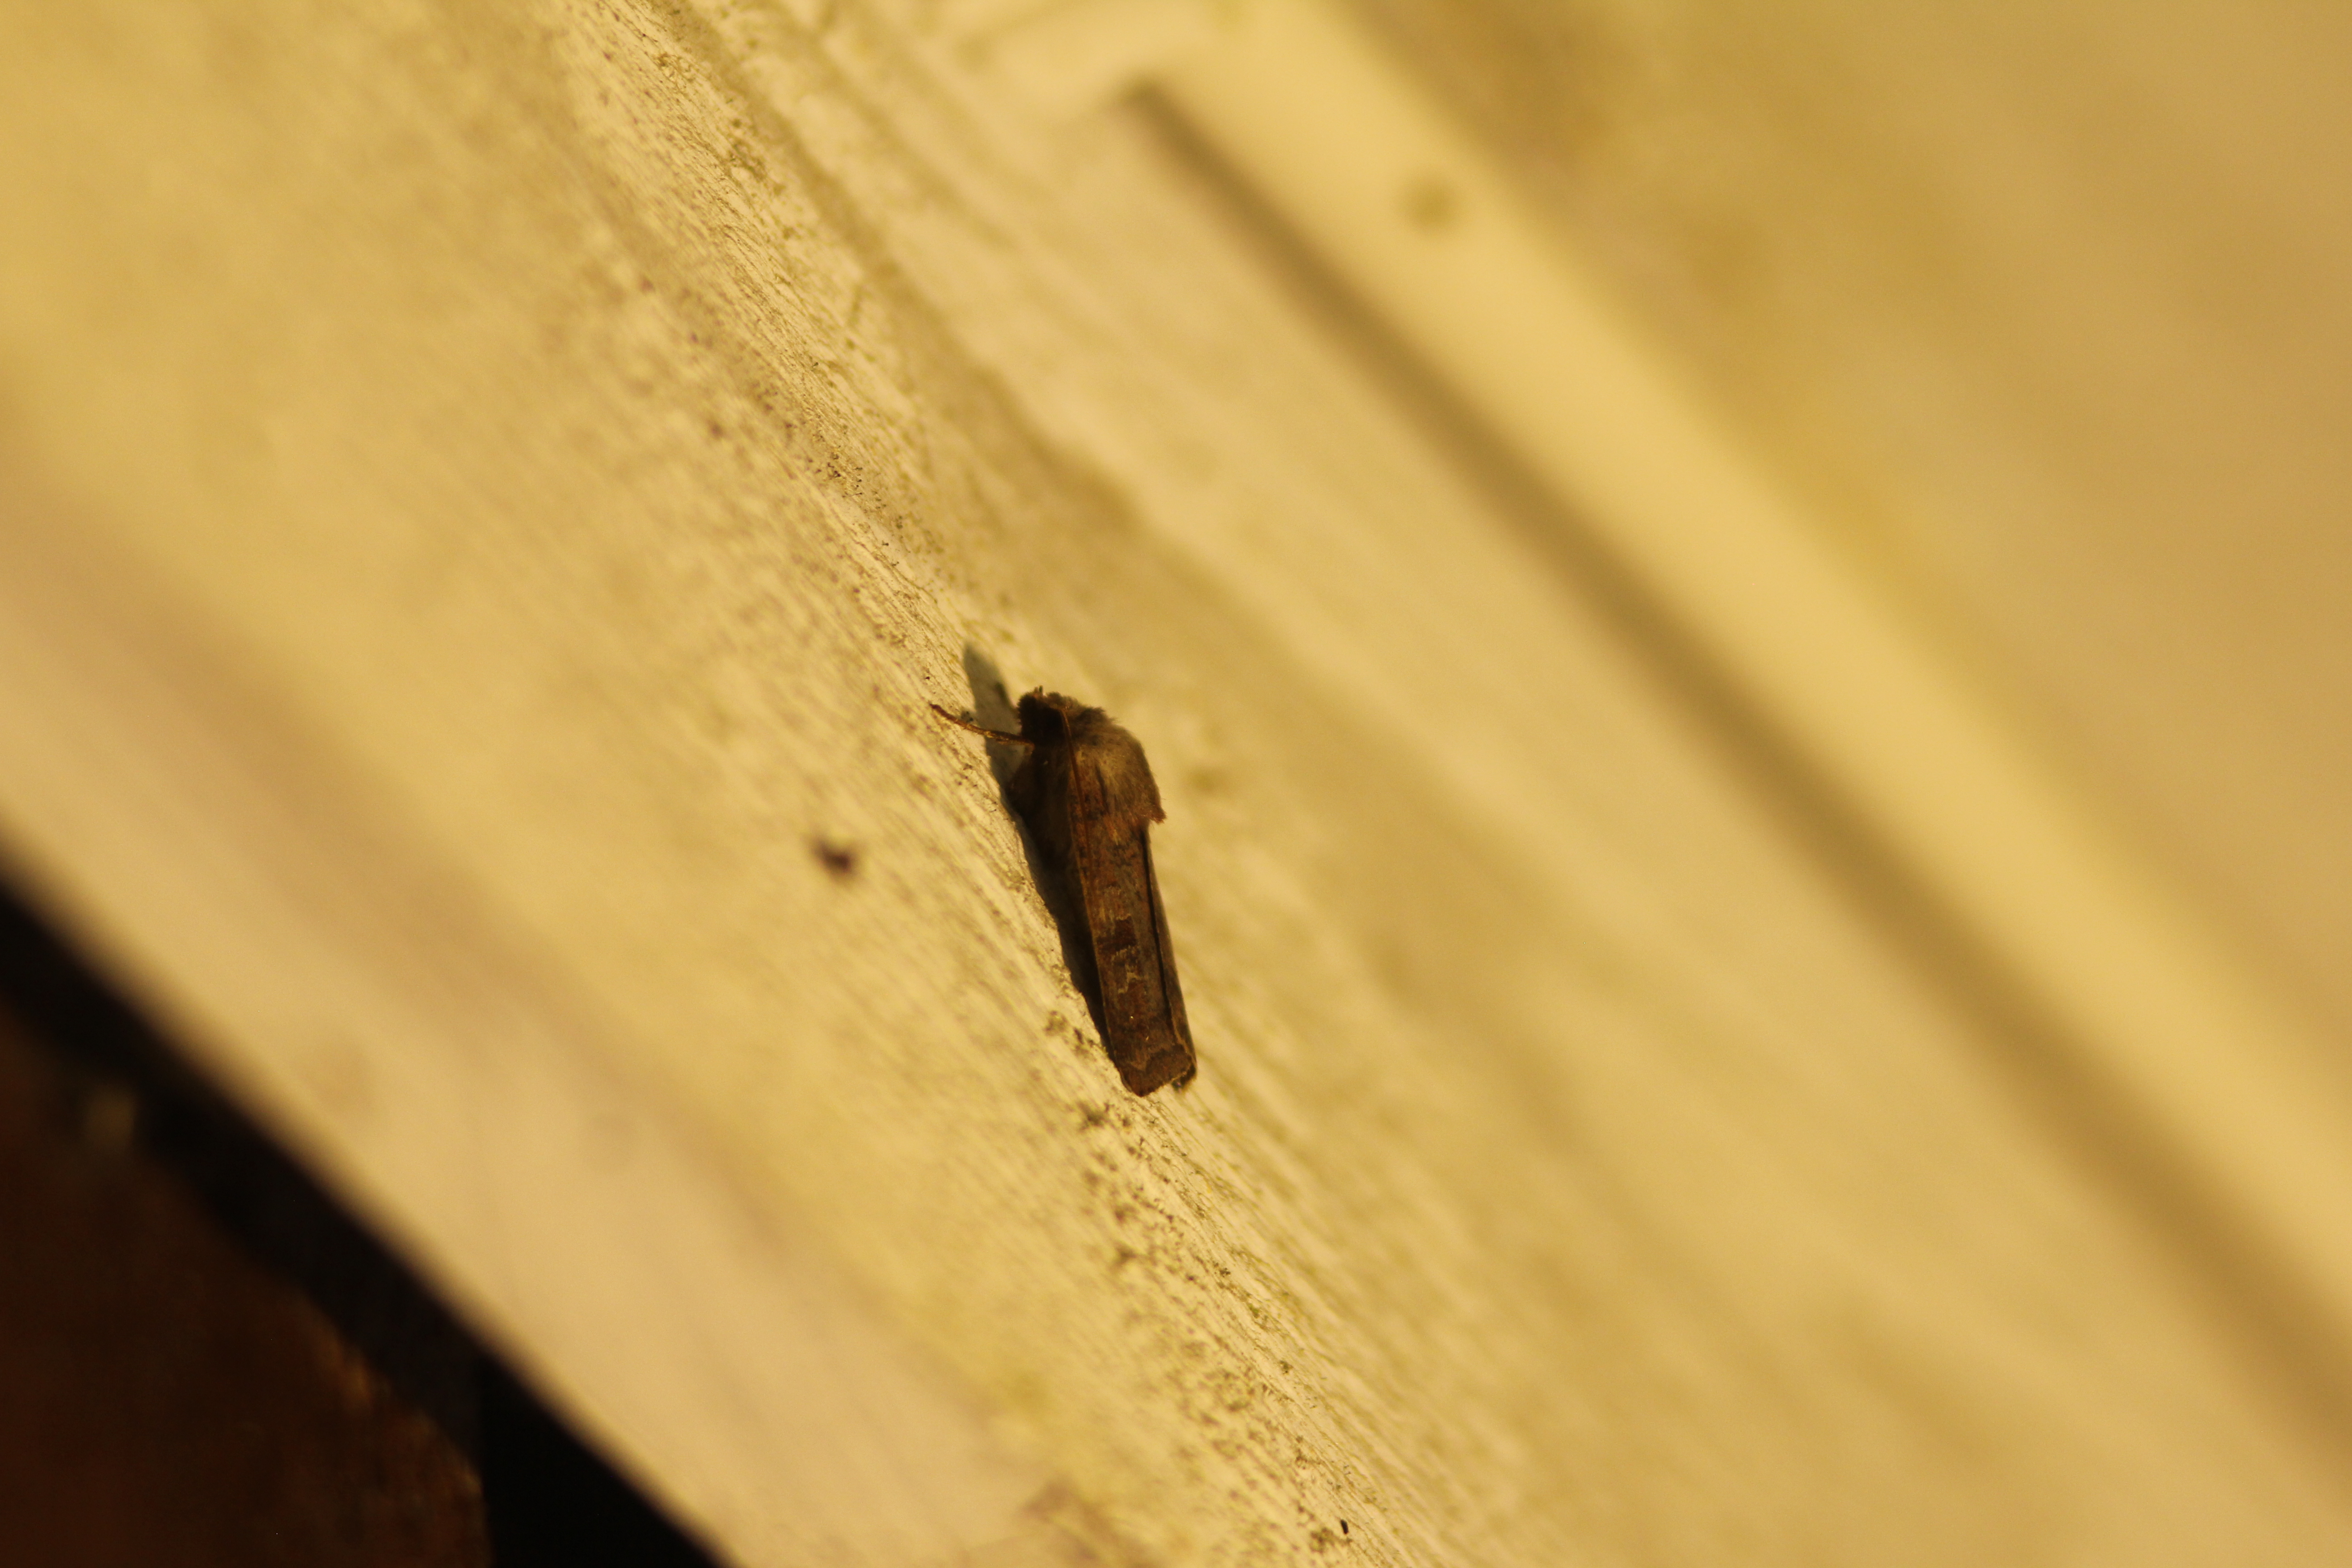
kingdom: Animalia
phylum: Arthropoda
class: Insecta
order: Lepidoptera
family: Noctuidae
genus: Diarsia
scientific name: Diarsia rubi
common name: Small square-spot
